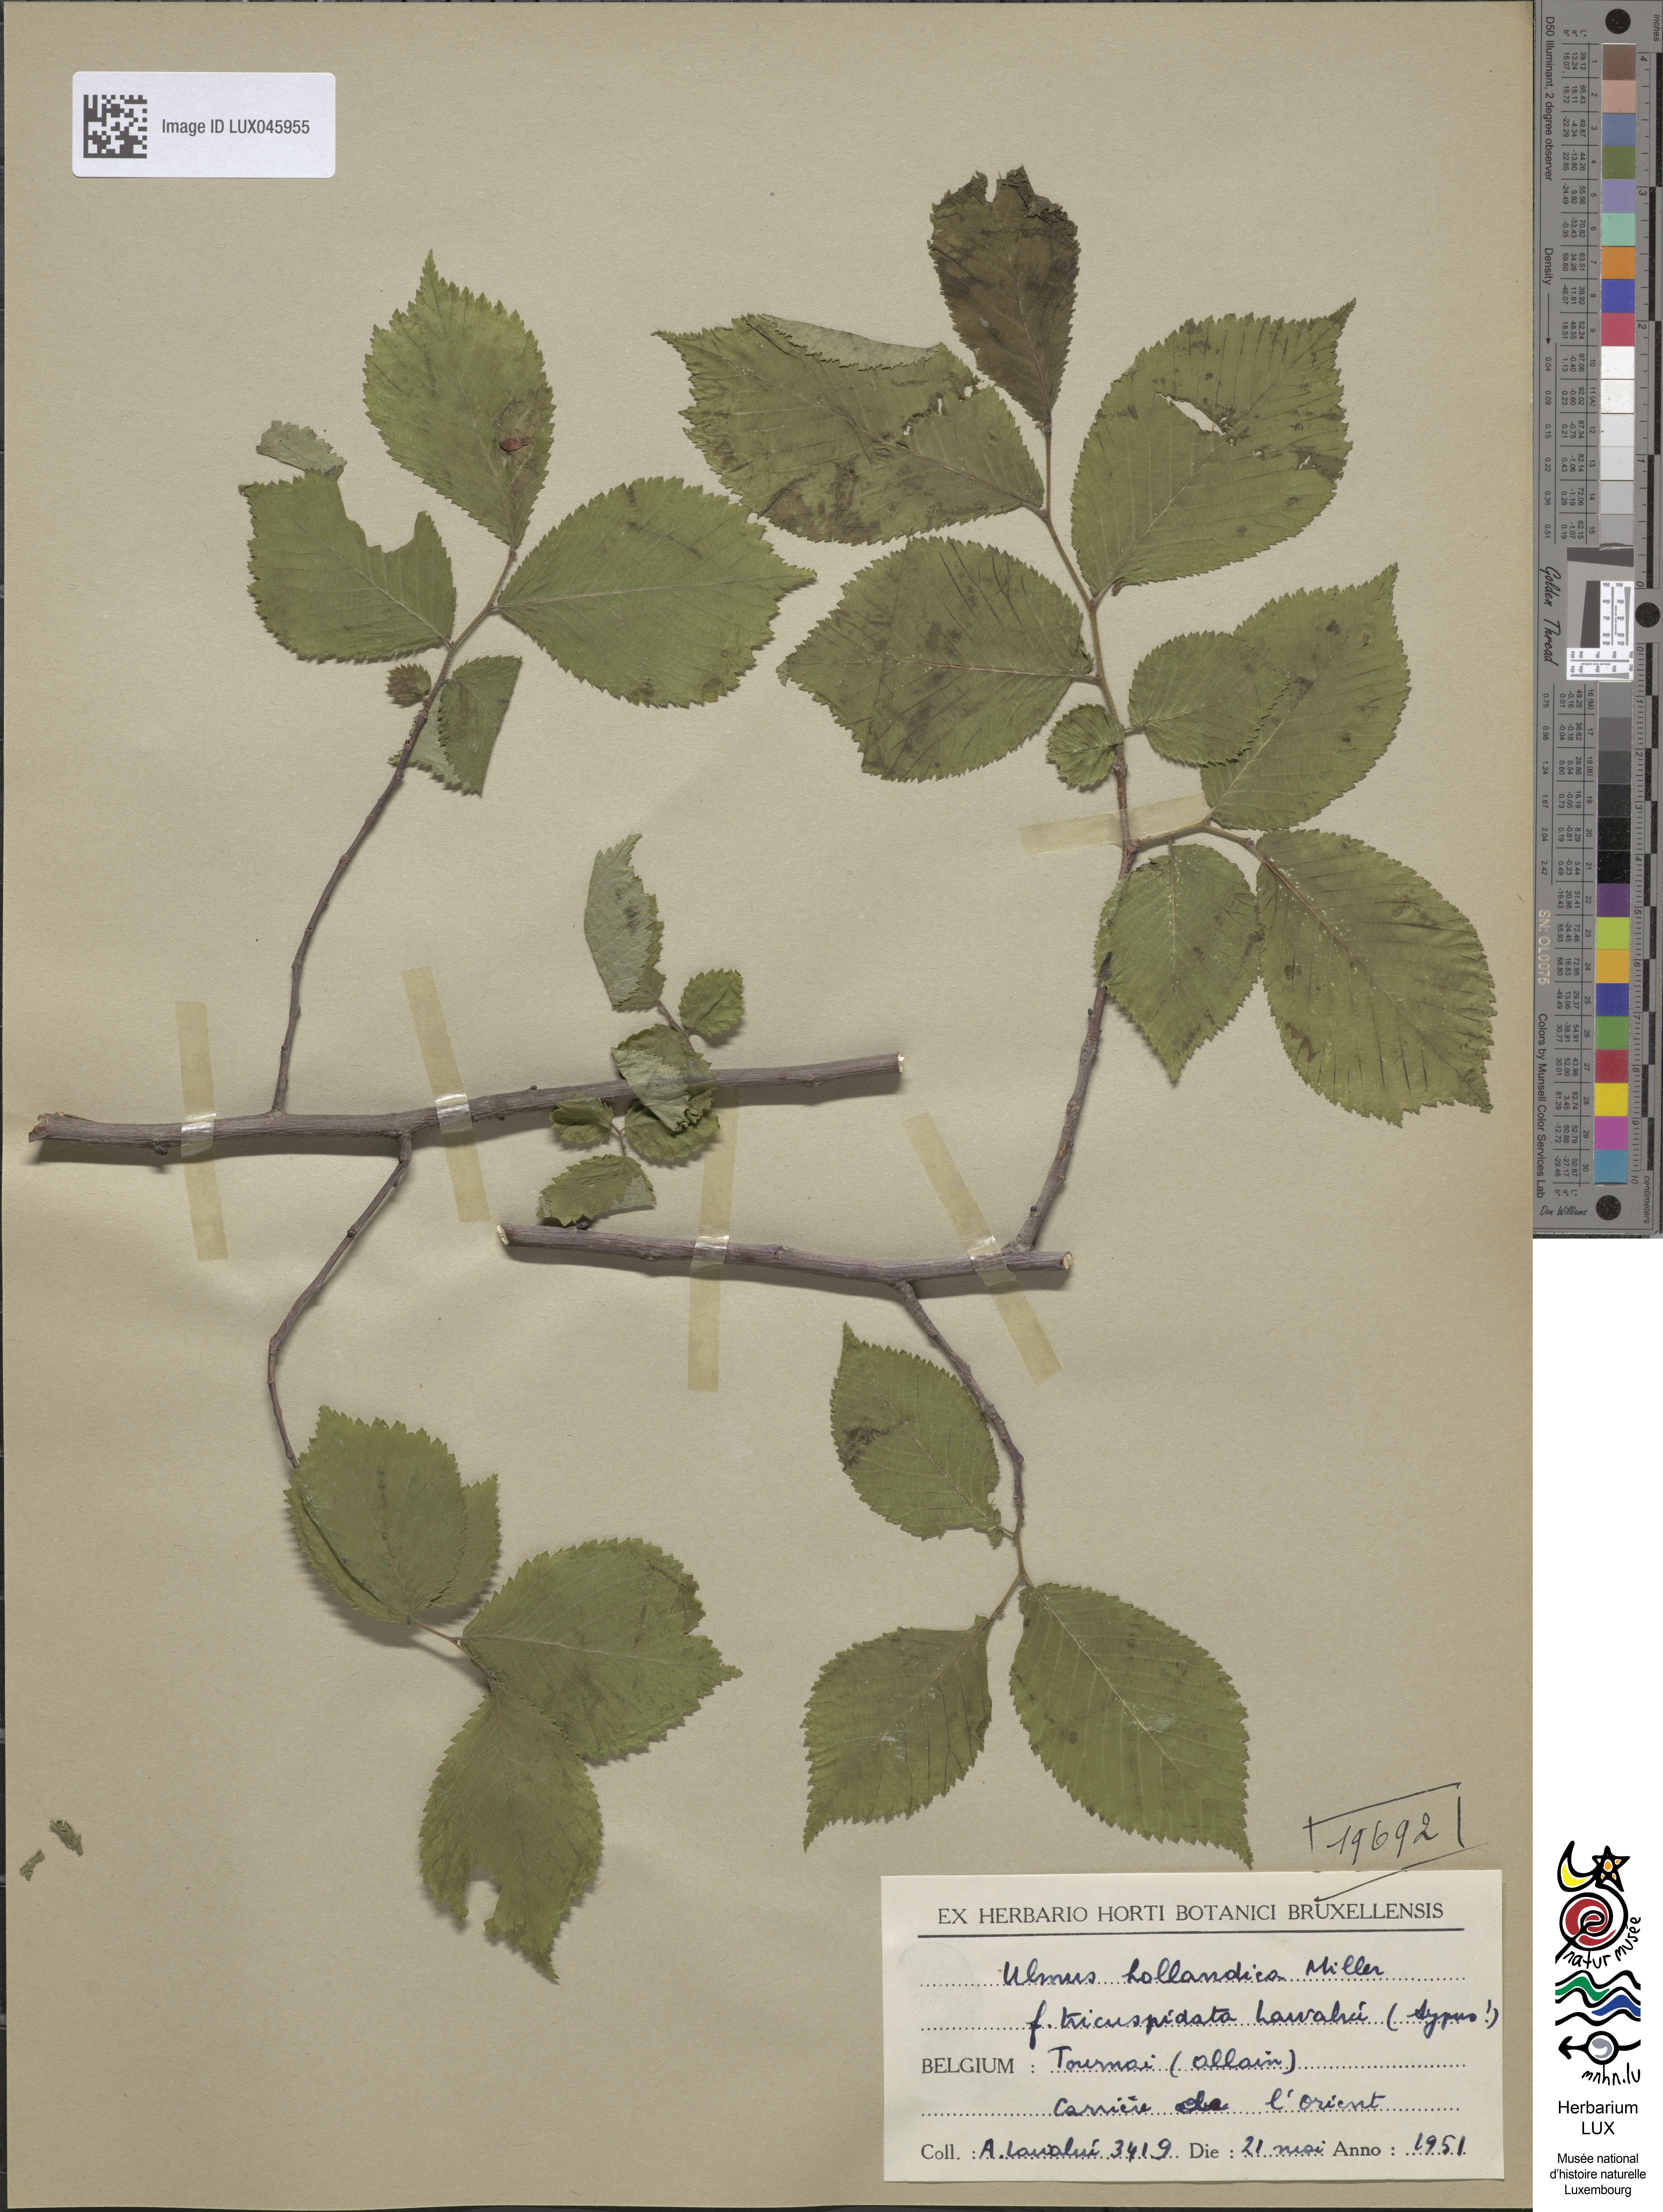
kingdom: Plantae
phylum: Tracheophyta
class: Magnoliopsida
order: Rosales
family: Ulmaceae
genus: Ulmus
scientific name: Ulmus hollandica
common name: Dutch elm
